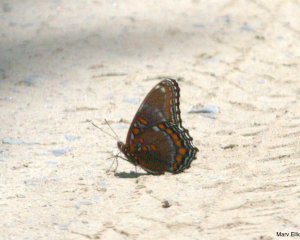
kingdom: Animalia
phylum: Arthropoda
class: Insecta
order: Lepidoptera
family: Nymphalidae
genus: Limenitis
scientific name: Limenitis
